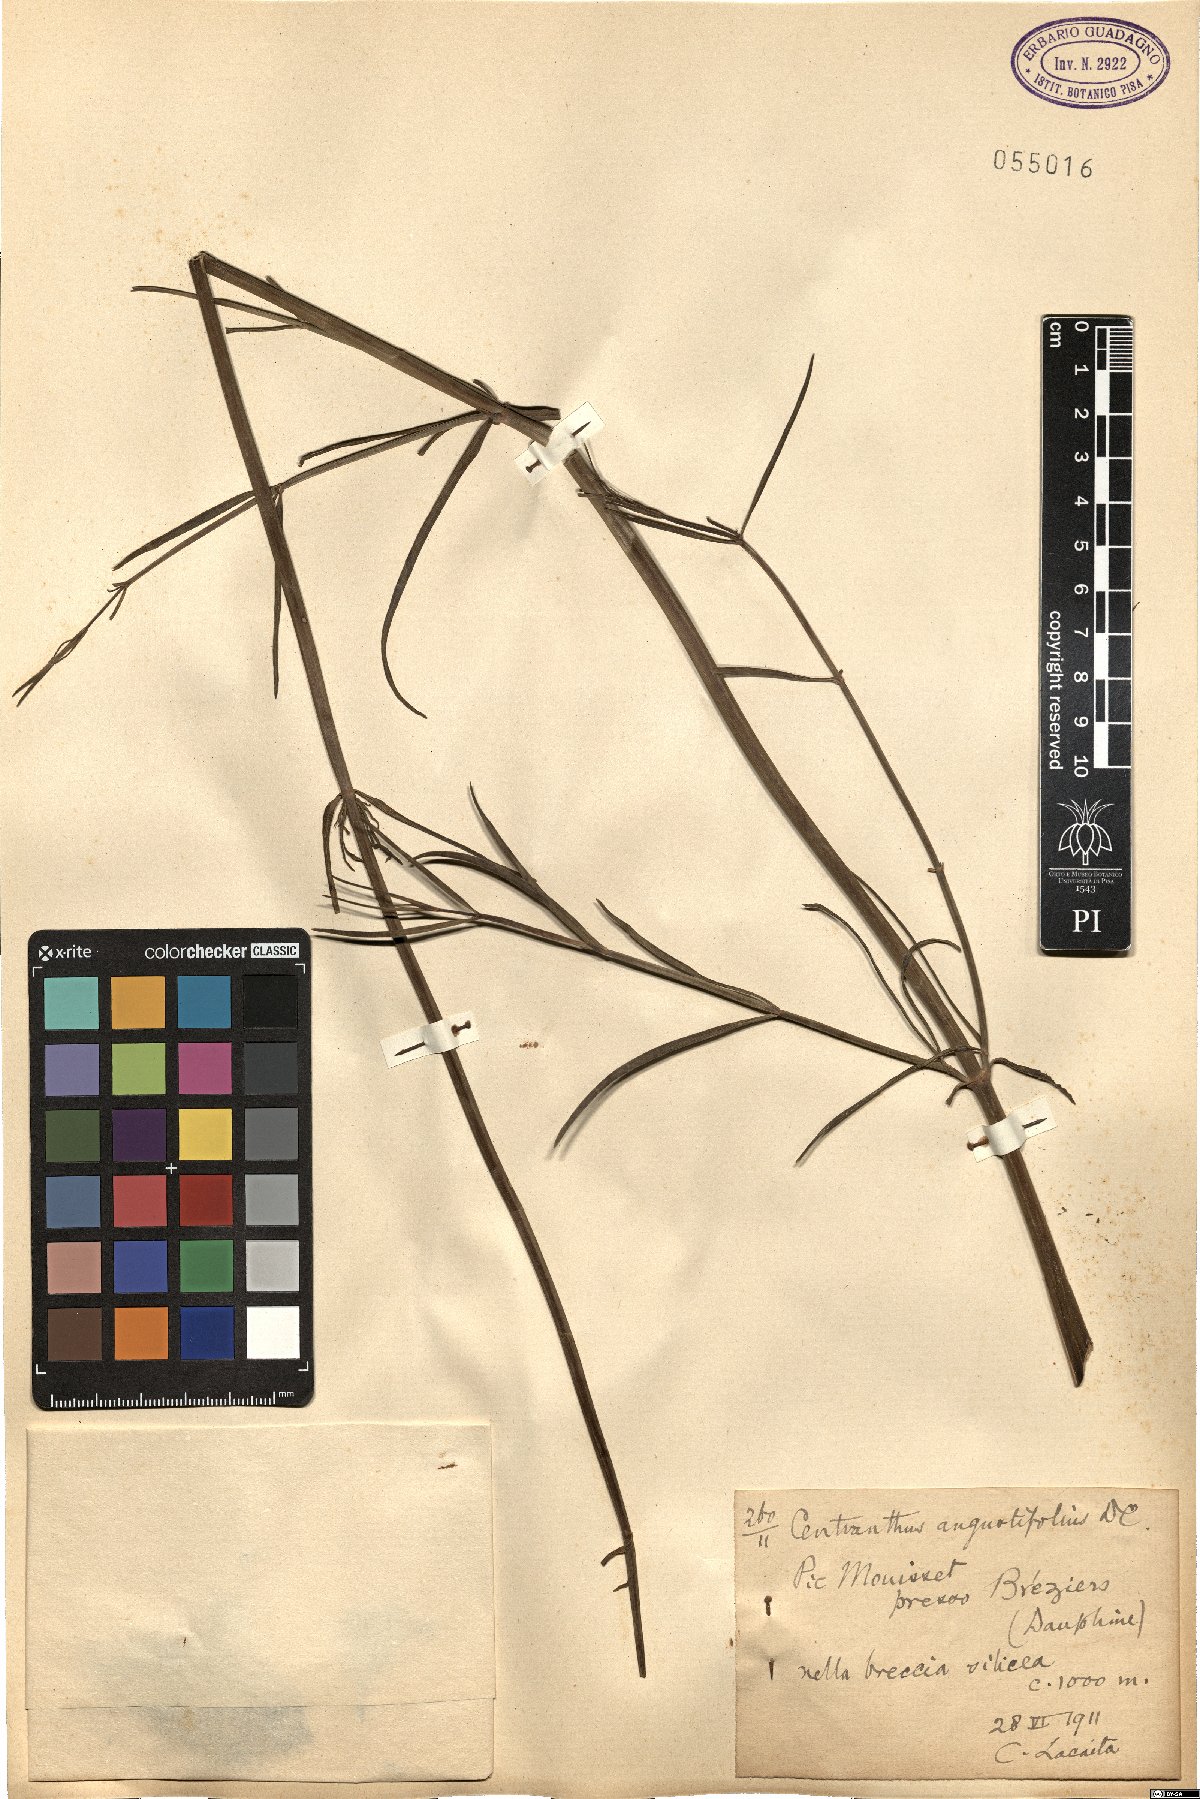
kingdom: Plantae
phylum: Tracheophyta
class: Magnoliopsida
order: Dipsacales
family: Caprifoliaceae
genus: Centranthus
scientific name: Centranthus angustifolius
